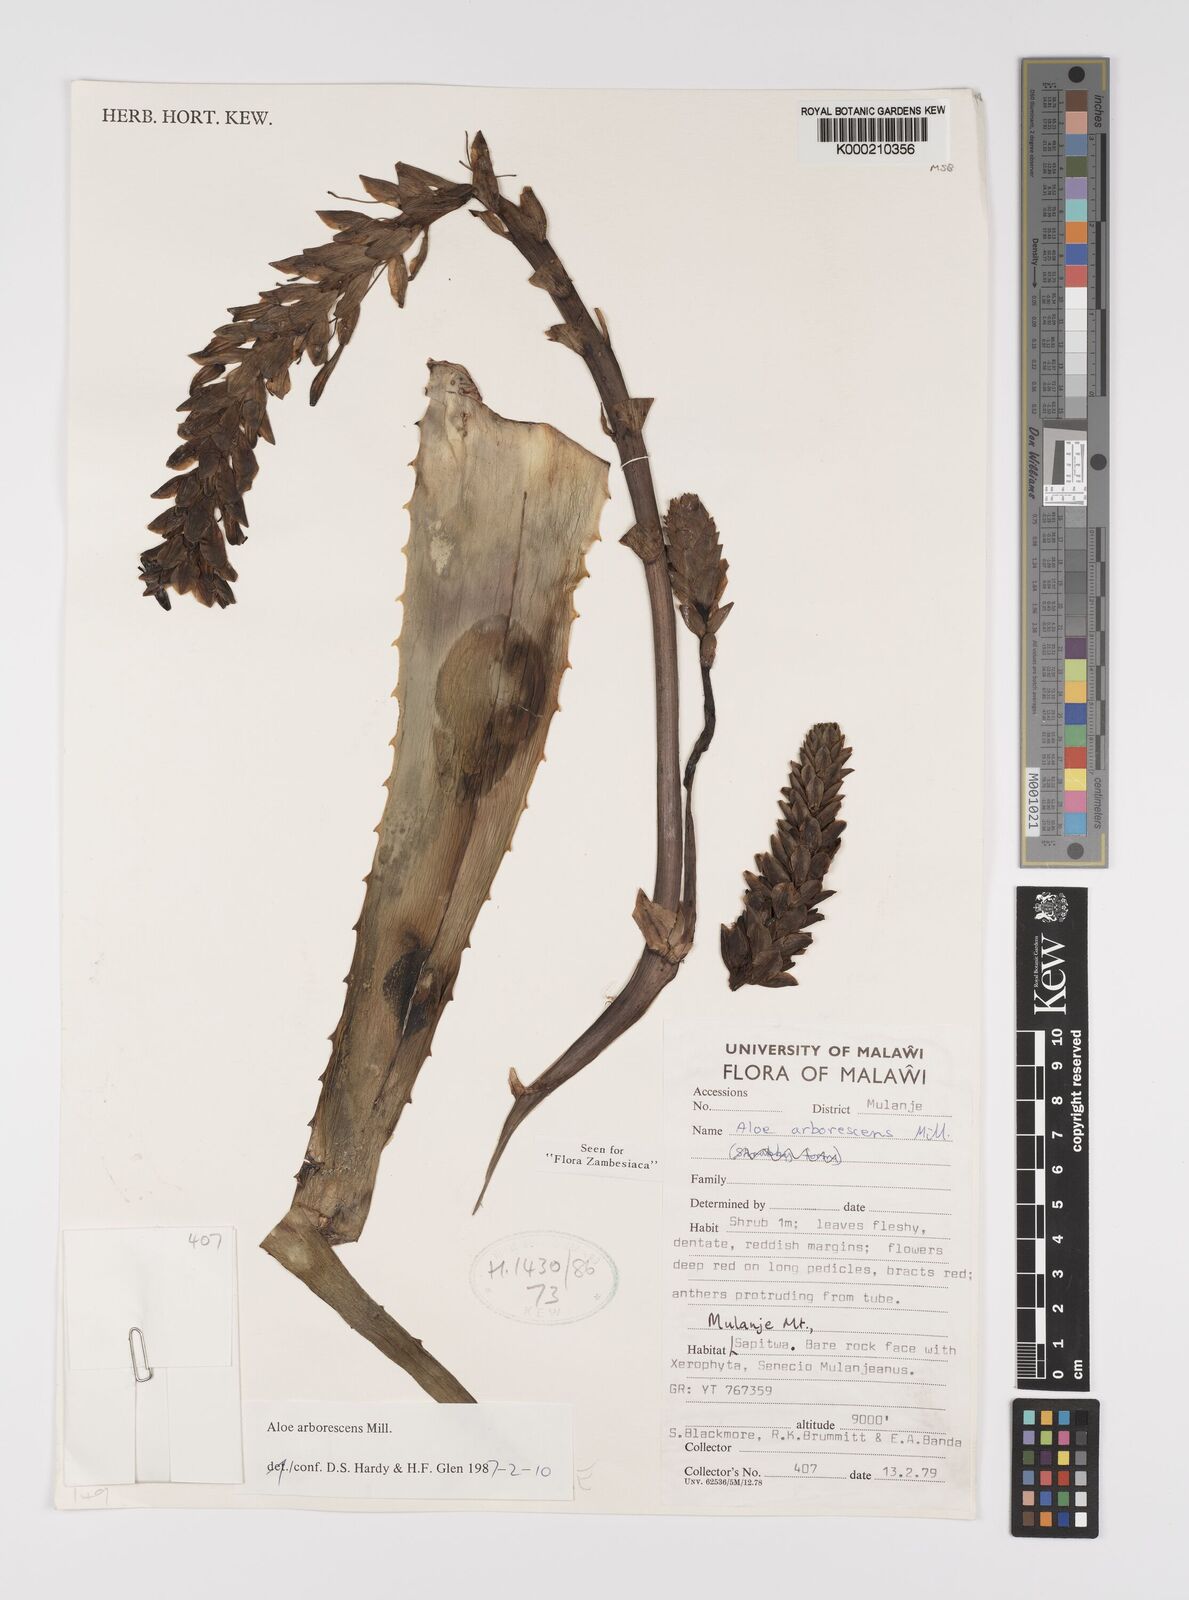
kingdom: Plantae
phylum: Tracheophyta
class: Liliopsida
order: Asparagales
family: Asphodelaceae
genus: Aloe
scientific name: Aloe arborescens
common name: Candelabra aloe
